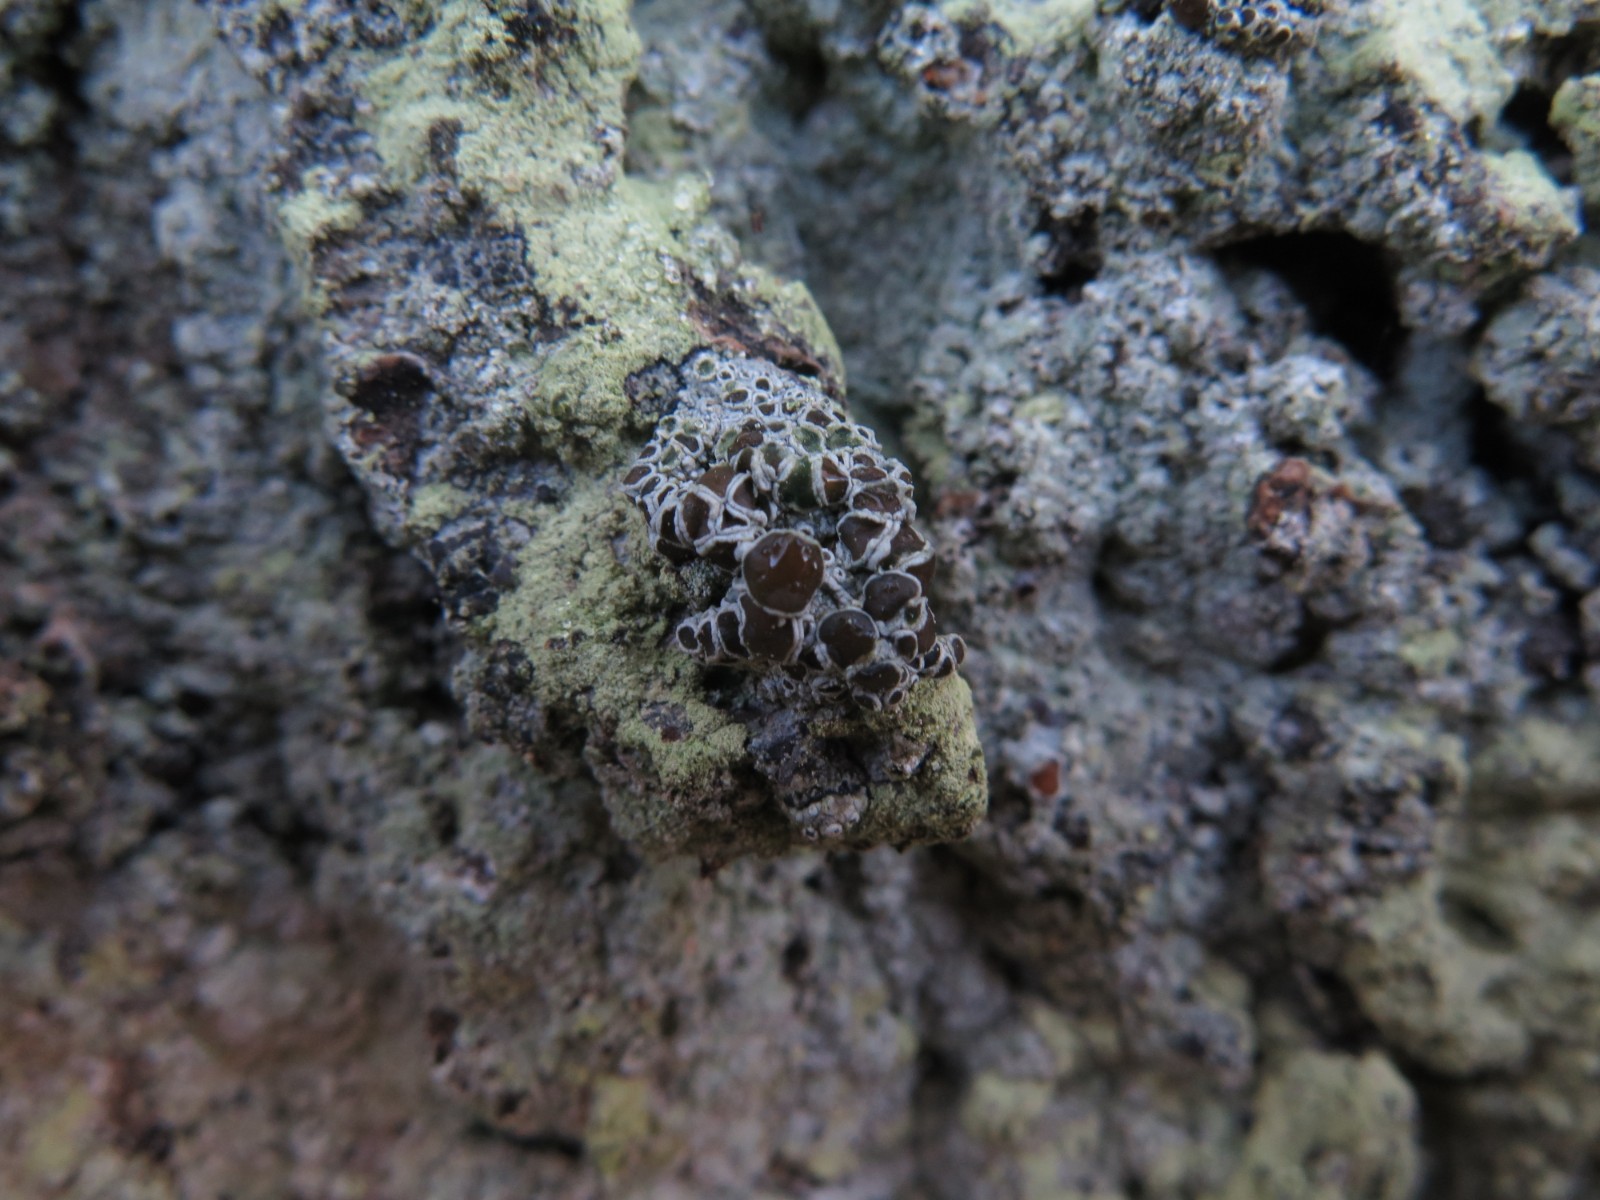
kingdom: Fungi
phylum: Ascomycota
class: Lecanoromycetes
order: Lecanorales
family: Lecanoraceae
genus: Lecanora
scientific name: Lecanora argentata
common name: sølv-kantskivelav
